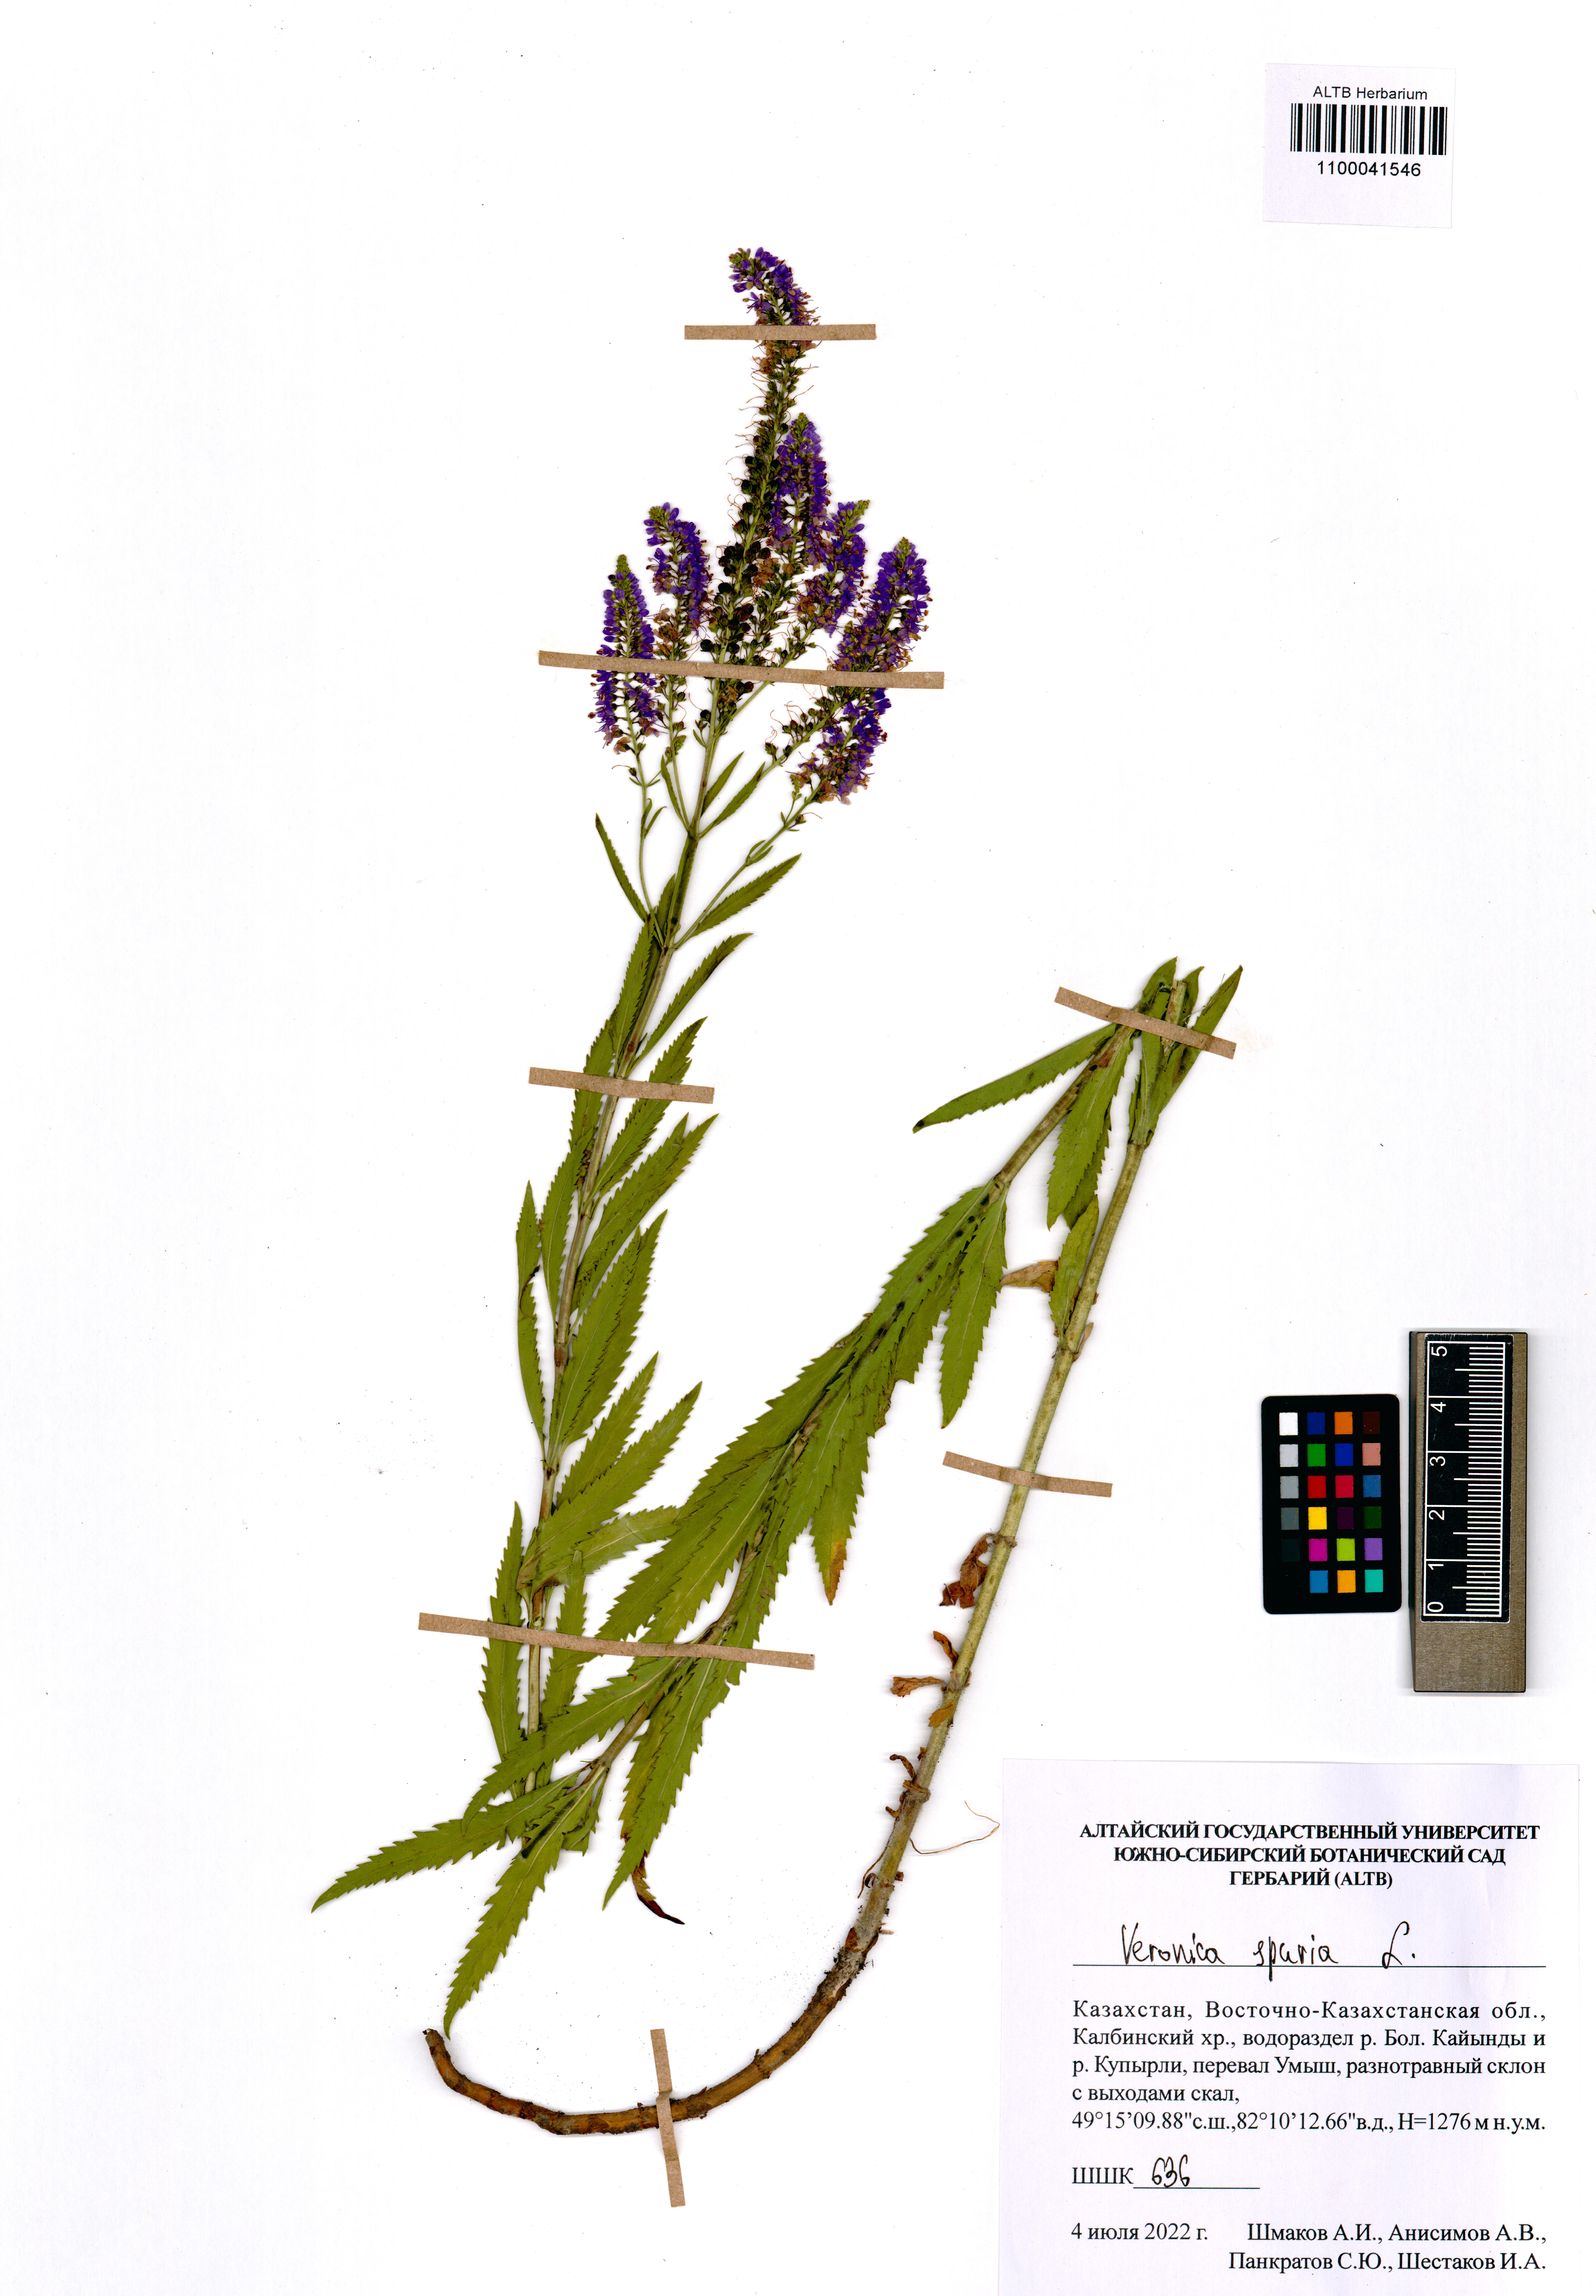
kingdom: Plantae
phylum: Tracheophyta
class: Magnoliopsida
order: Lamiales
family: Plantaginaceae
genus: Veronica
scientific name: Veronica spuria
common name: Bastard speedwell
